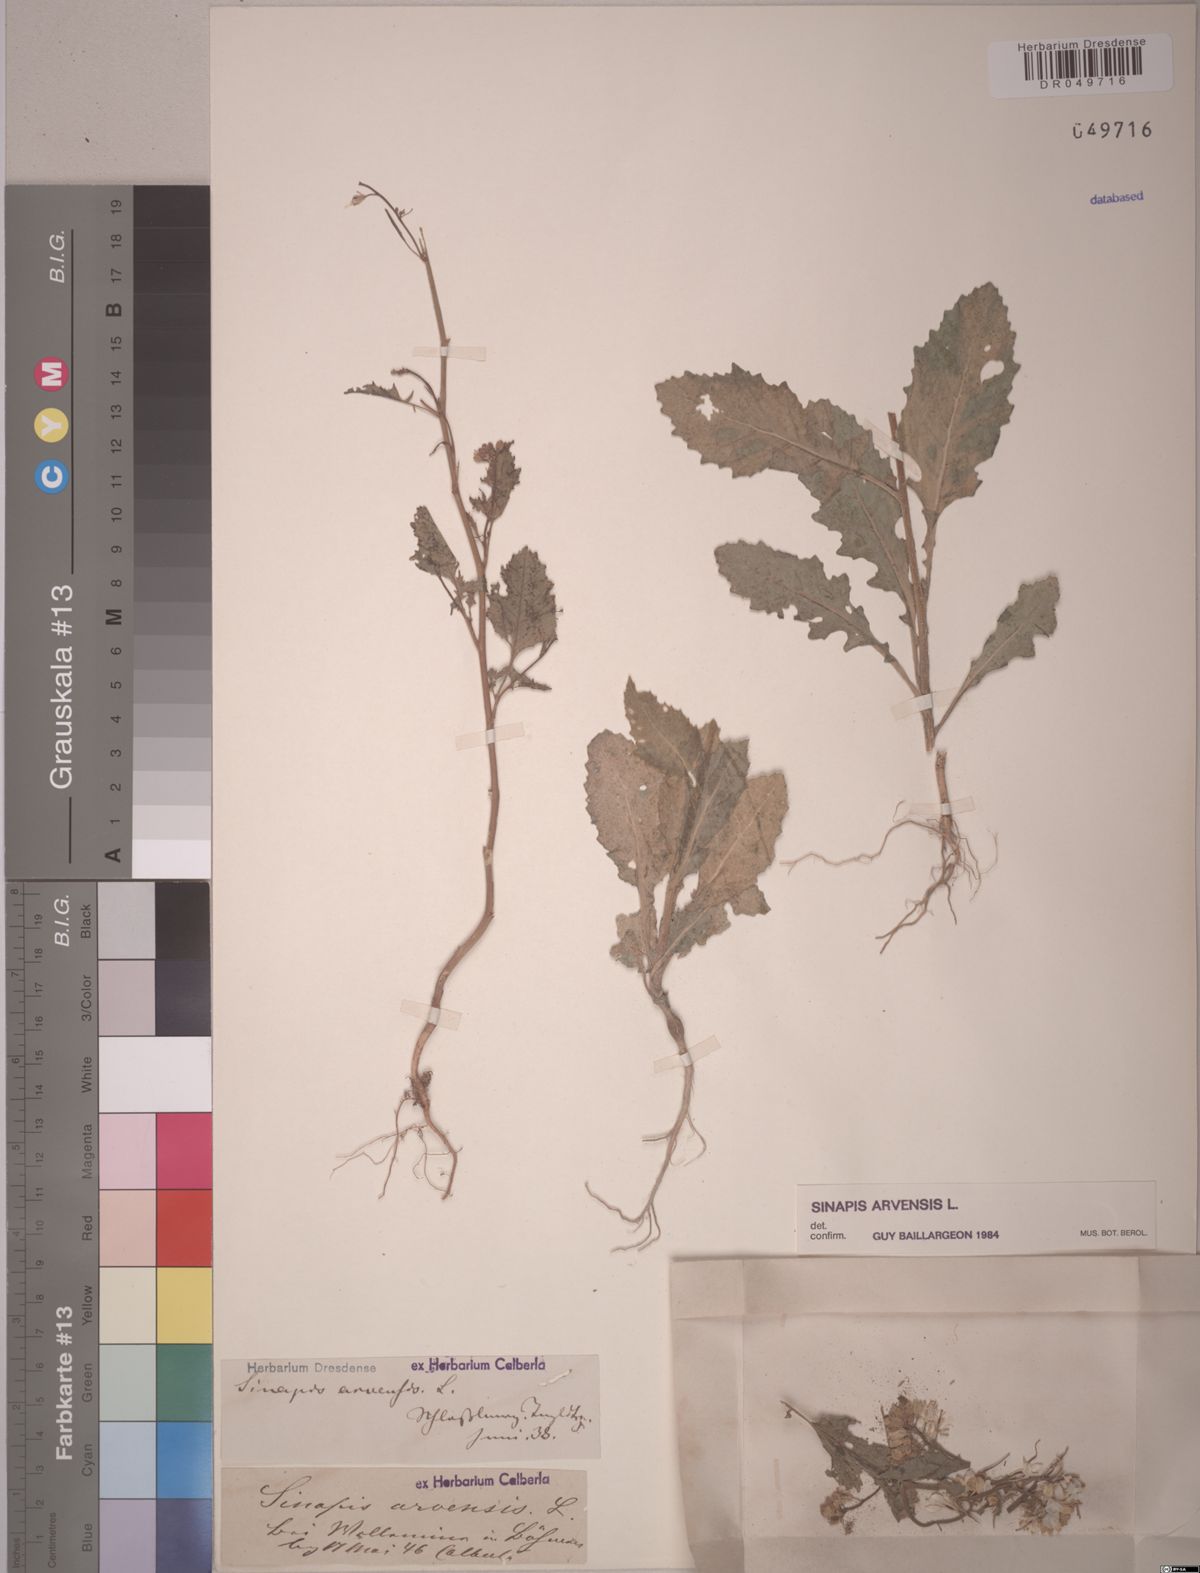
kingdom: Plantae
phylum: Tracheophyta
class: Magnoliopsida
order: Brassicales
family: Brassicaceae
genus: Sinapis
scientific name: Sinapis arvensis
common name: Charlock
